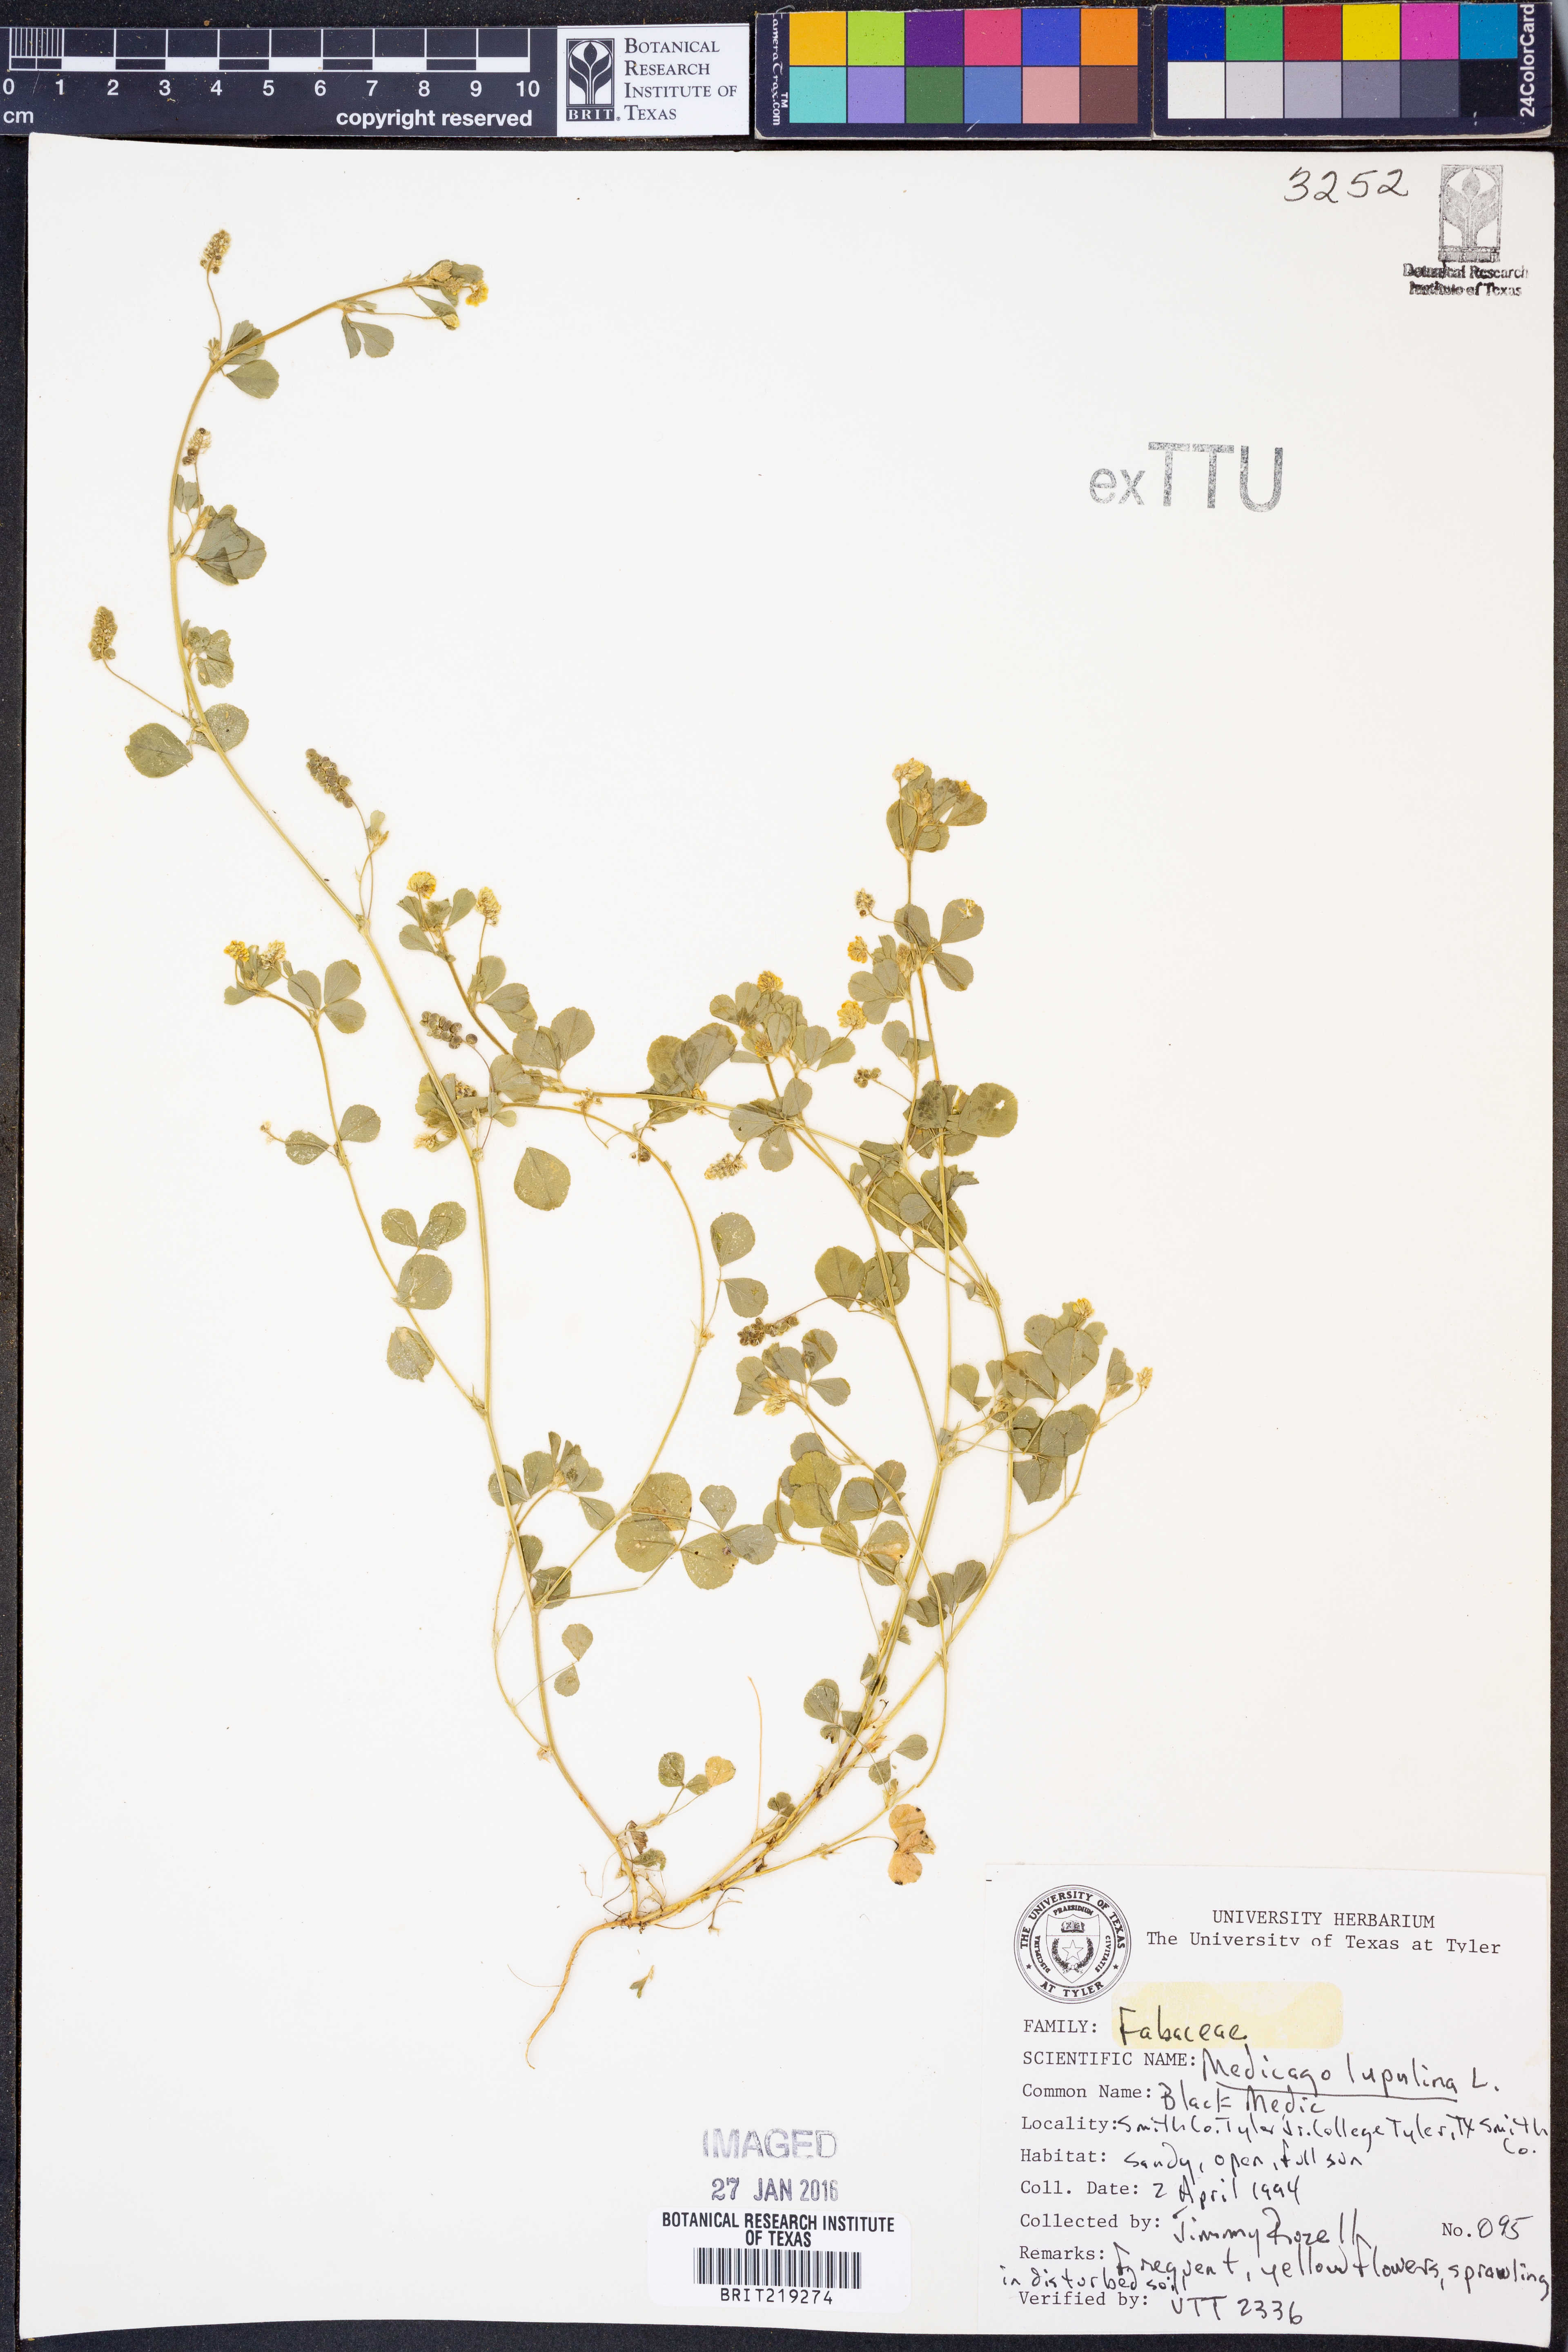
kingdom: Plantae
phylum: Tracheophyta
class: Magnoliopsida
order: Fabales
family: Fabaceae
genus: Medicago
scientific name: Medicago lupulina
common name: Black medick
